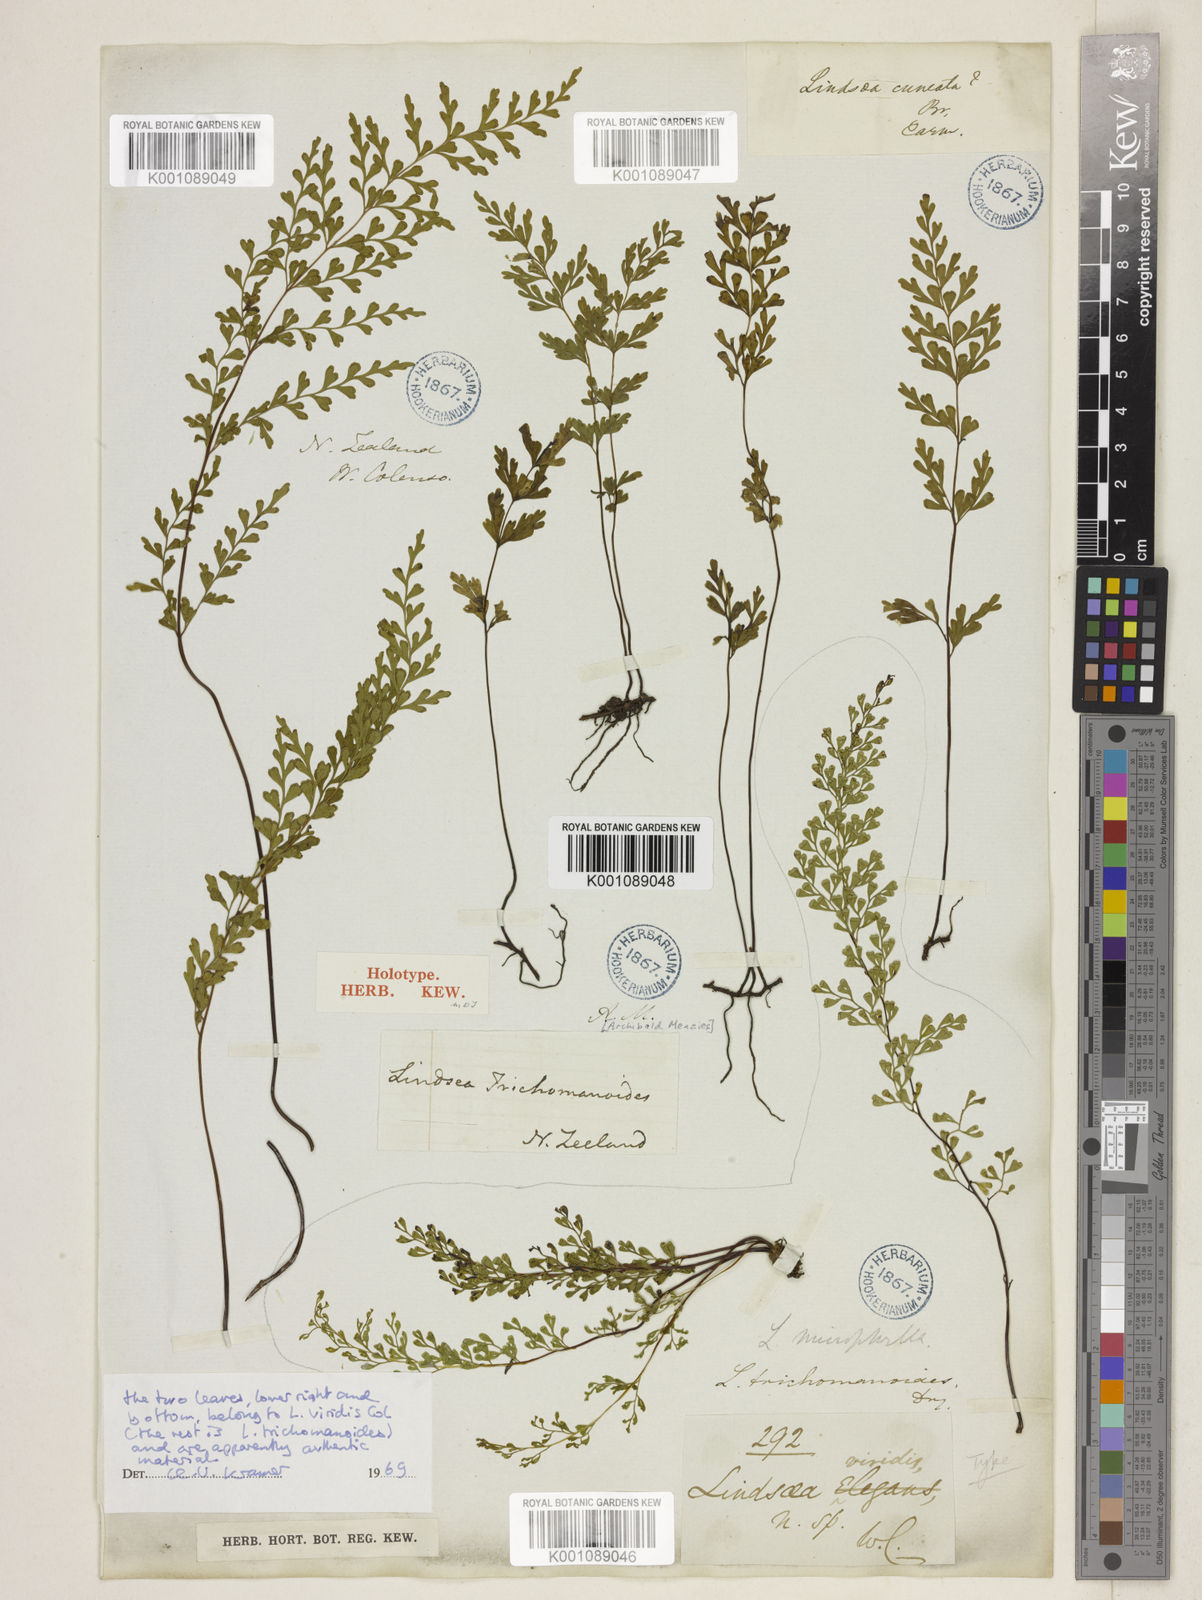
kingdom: Plantae
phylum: Tracheophyta
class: Polypodiopsida
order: Polypodiales
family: Lindsaeaceae
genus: Odontosoria
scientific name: Odontosoria viridis
